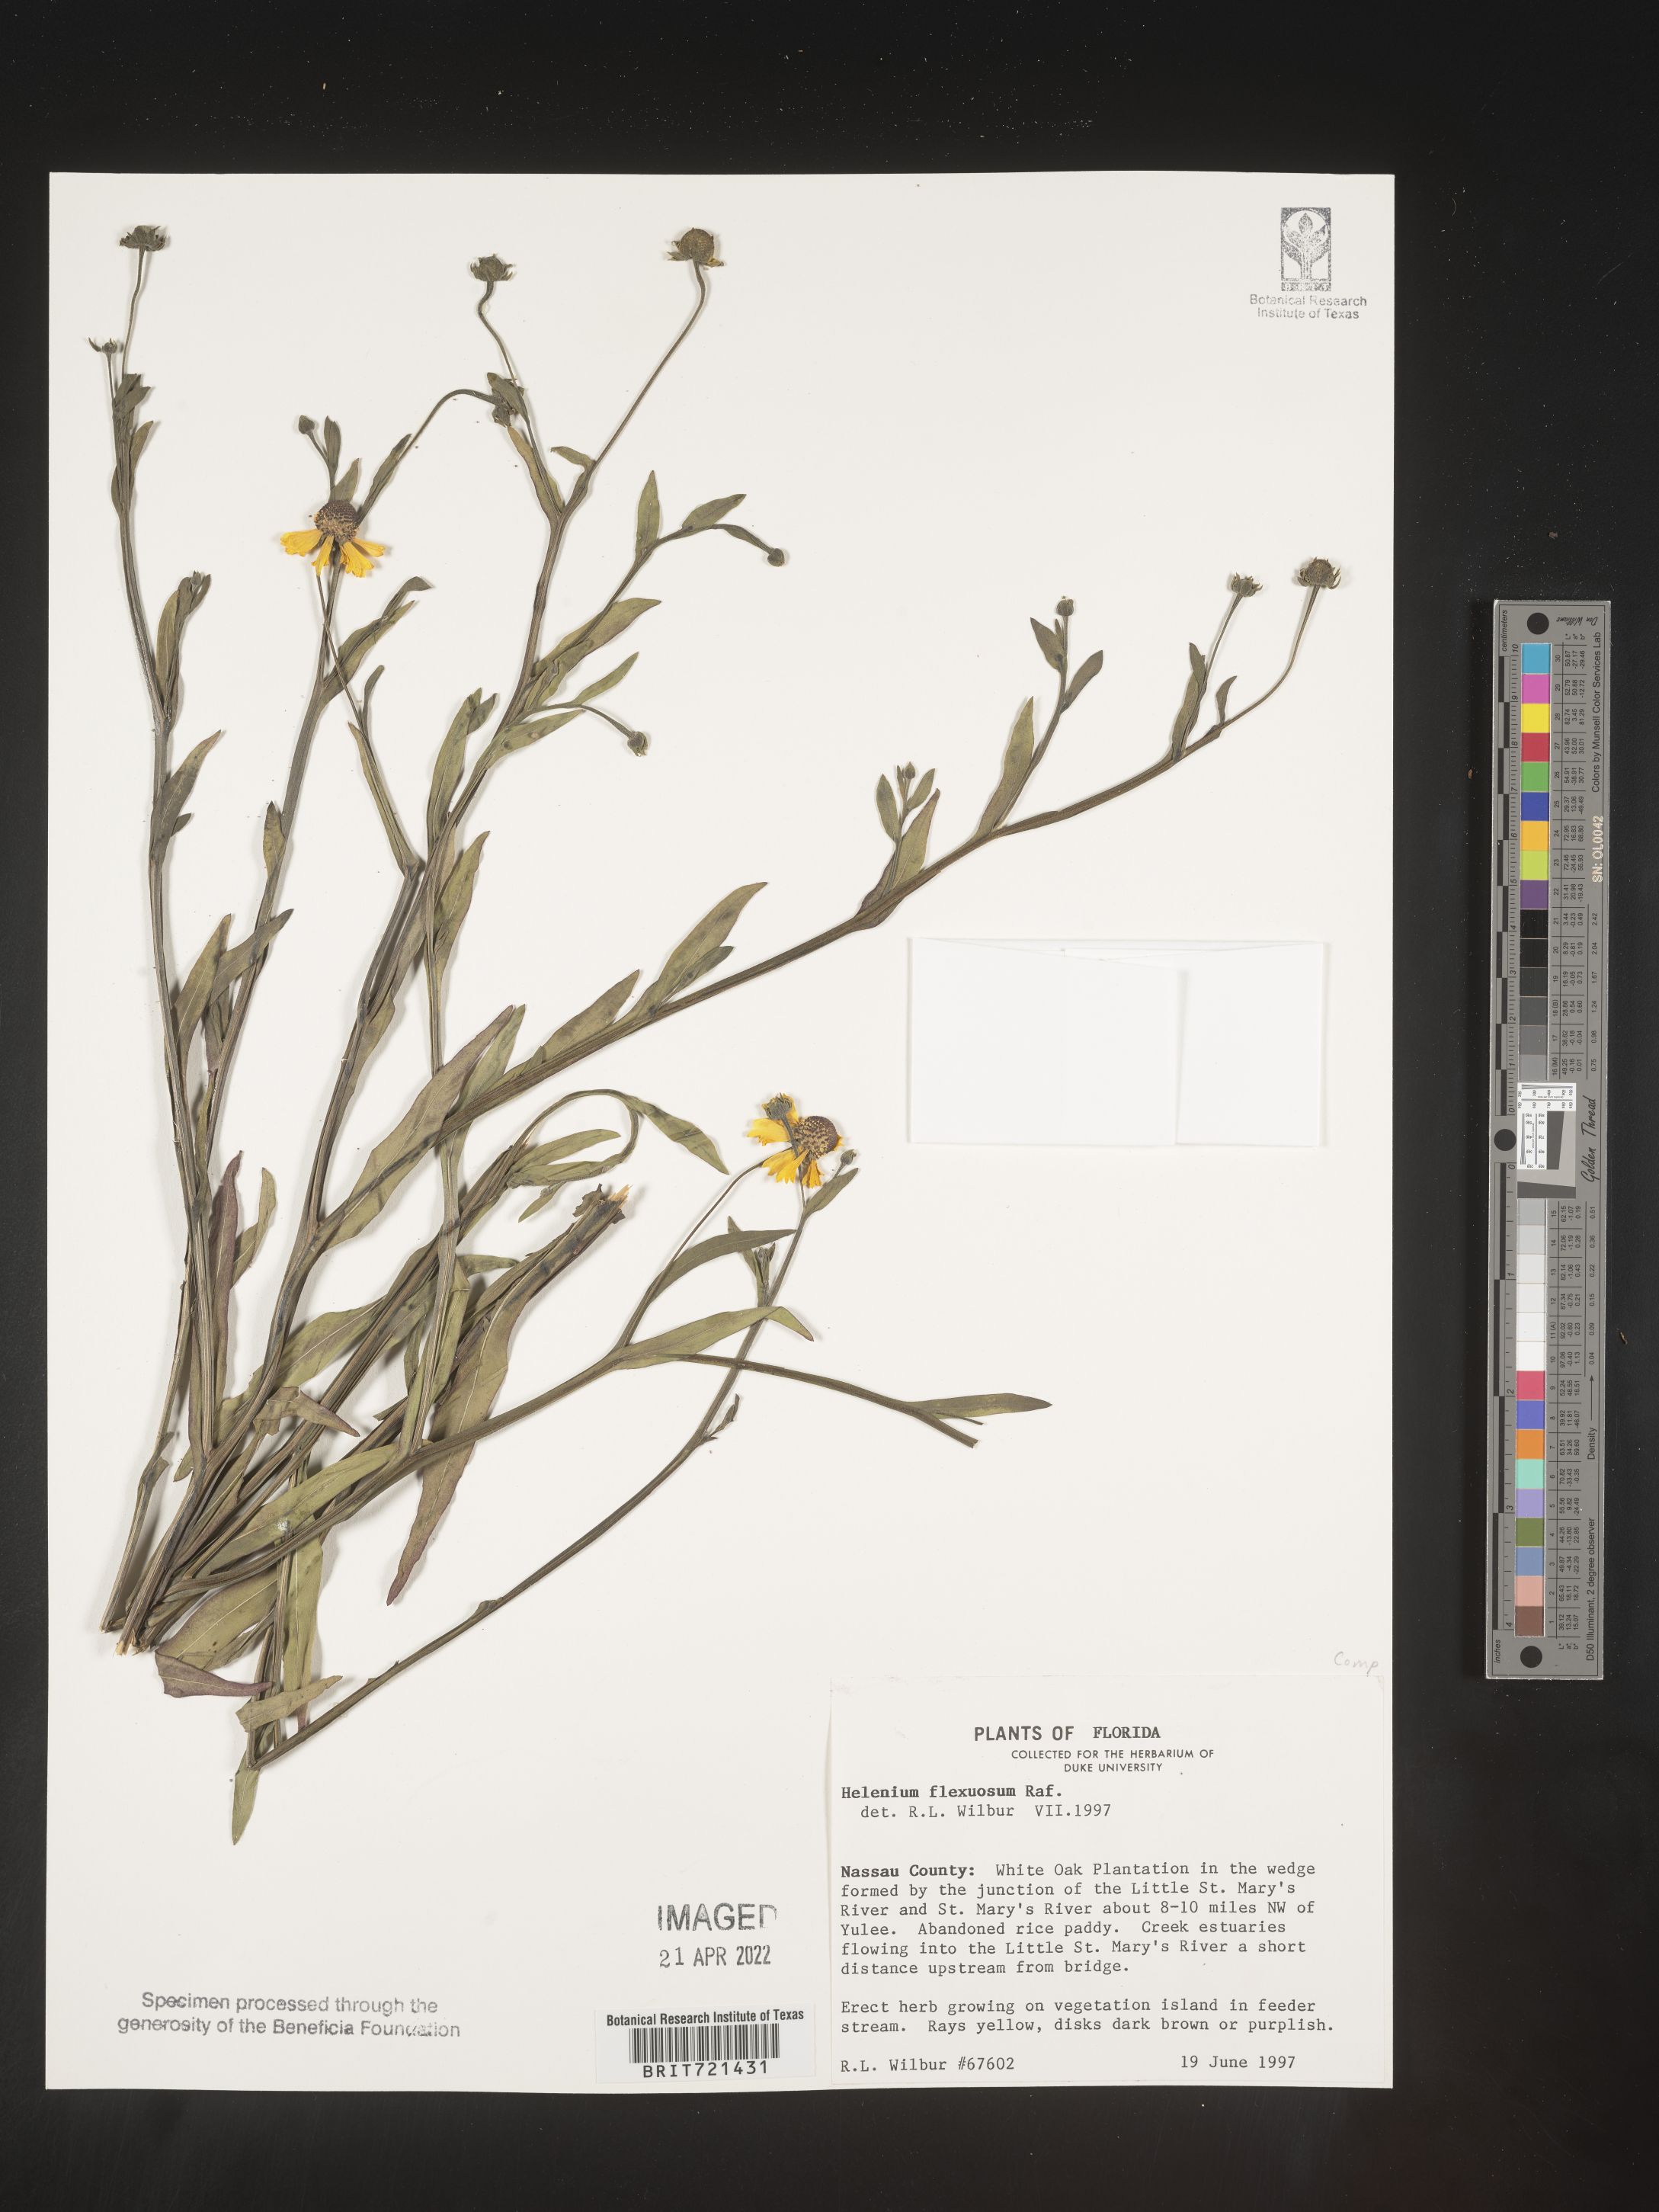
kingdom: Plantae
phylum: Tracheophyta
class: Magnoliopsida
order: Asterales
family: Asteraceae
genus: Helenium
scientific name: Helenium flexuosum
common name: Naked-flowered sneezeweed
